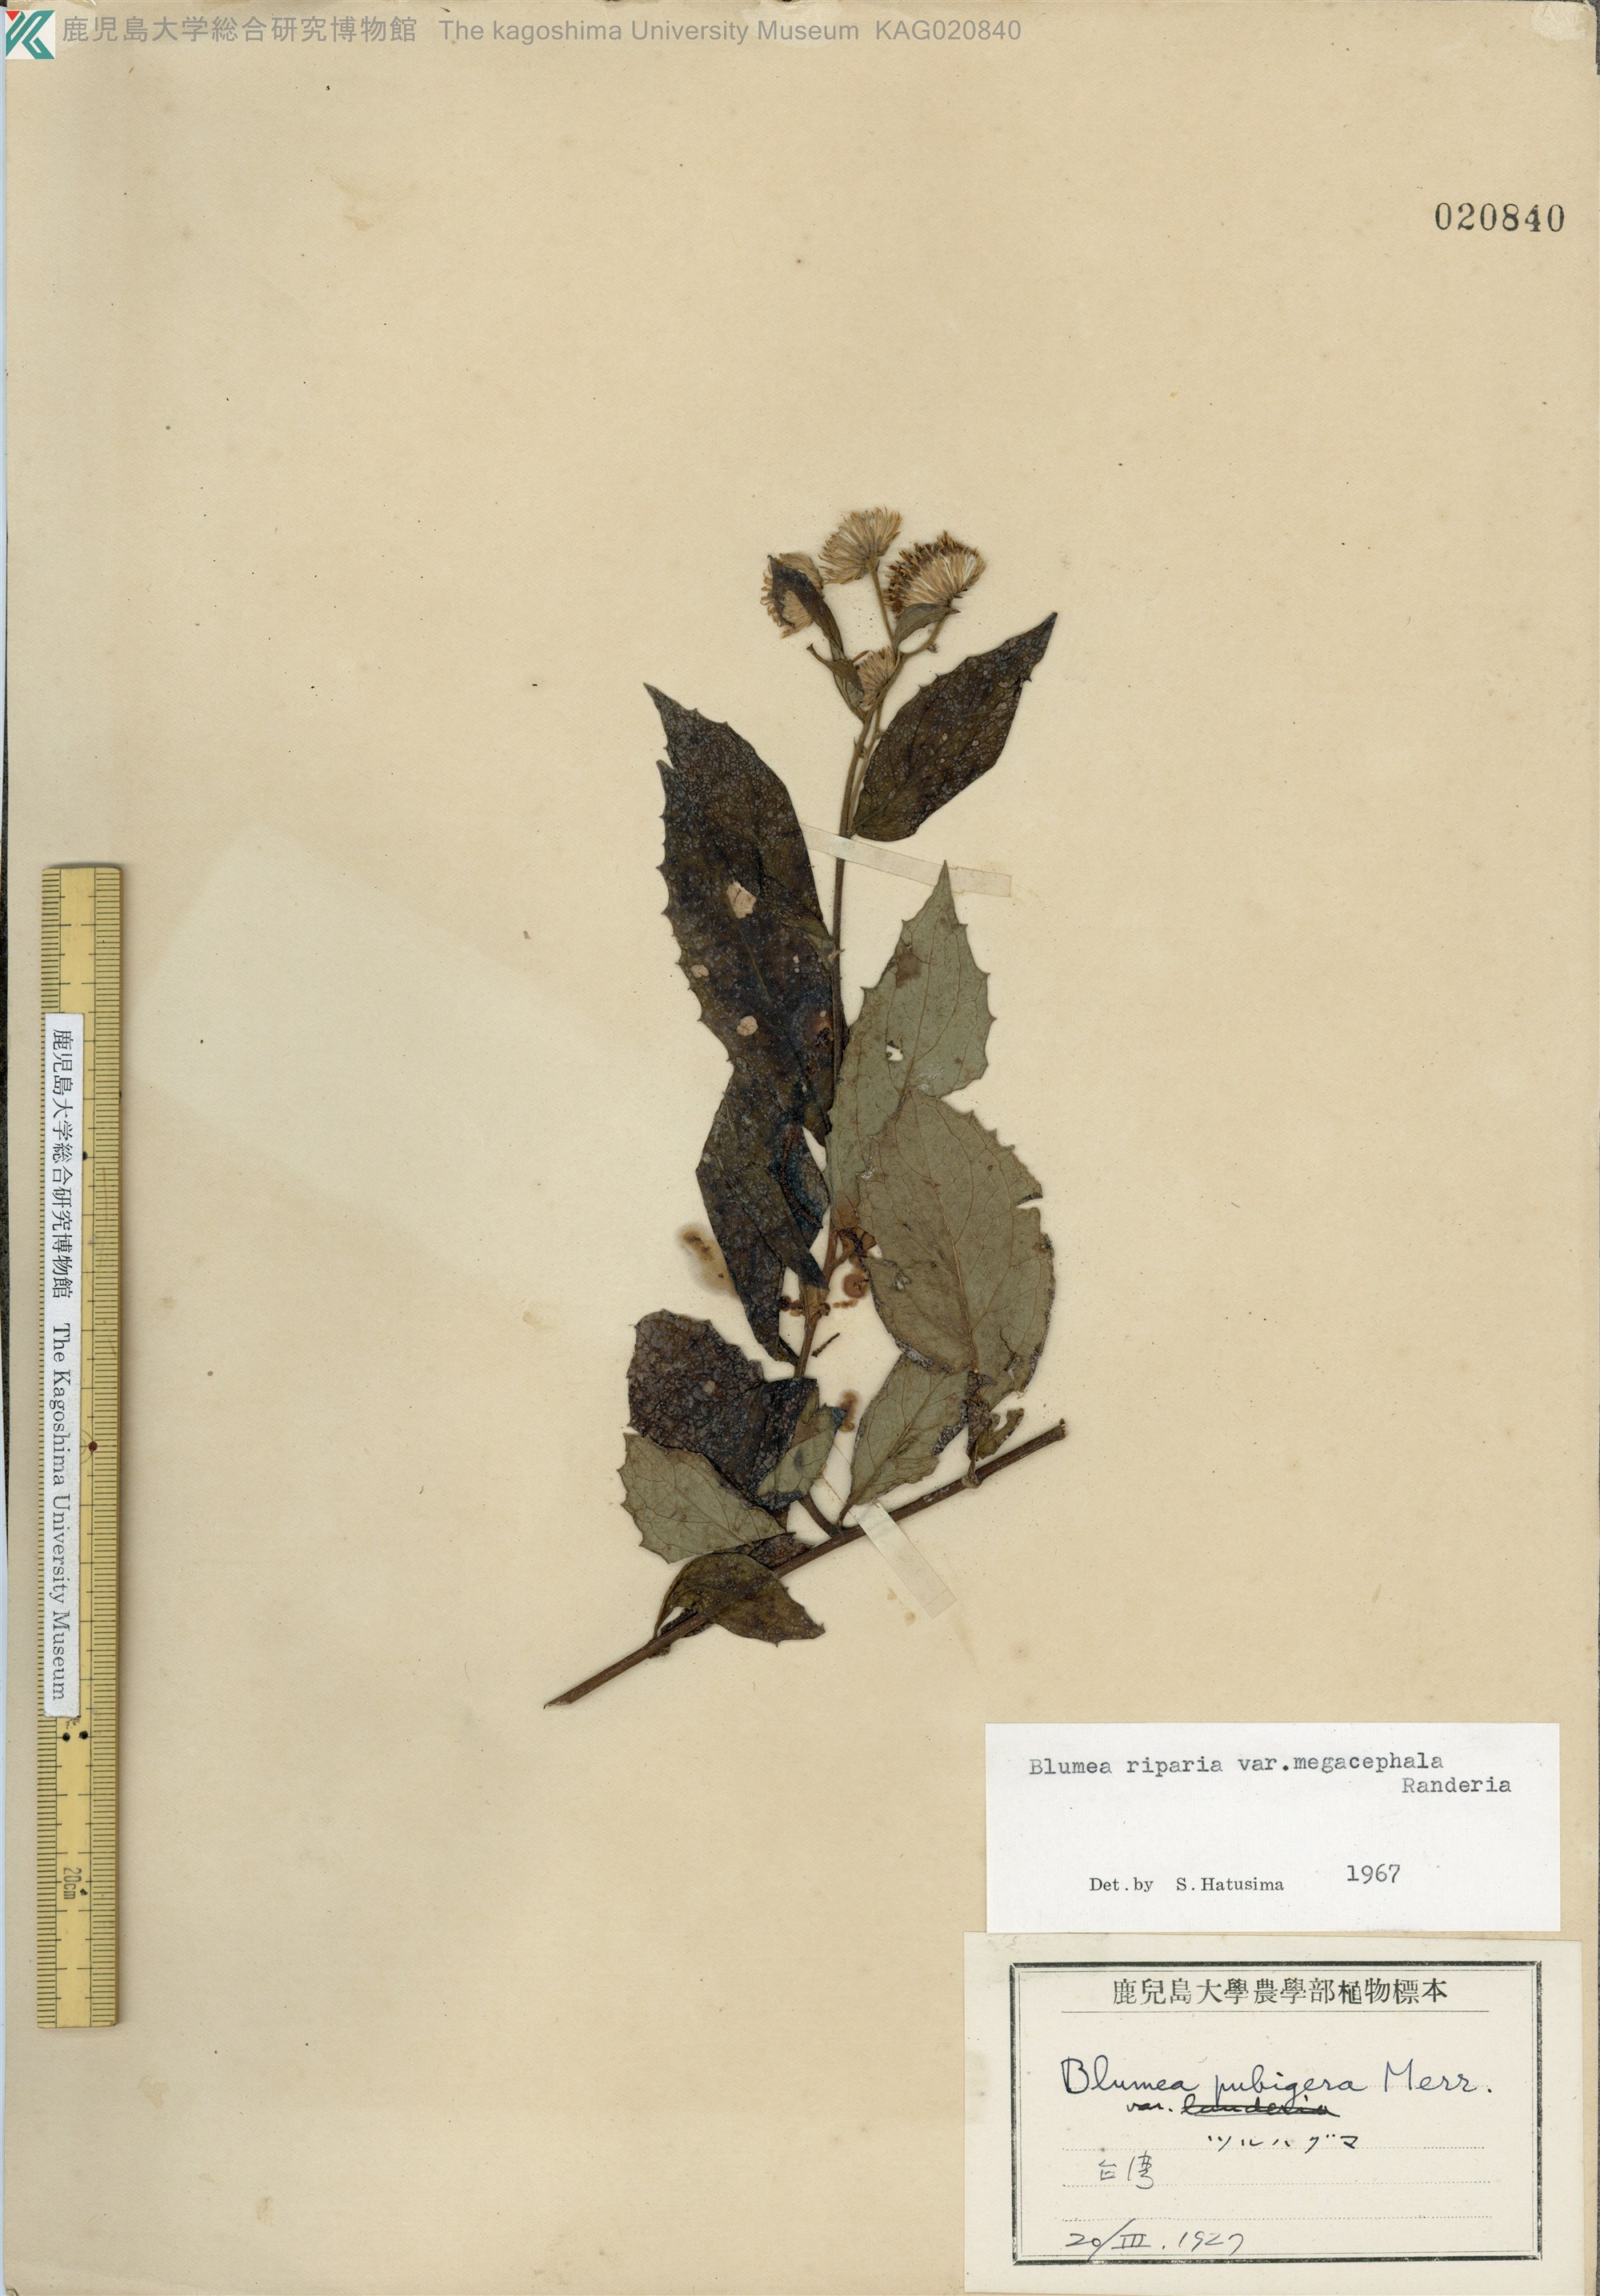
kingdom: Plantae
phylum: Tracheophyta
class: Magnoliopsida
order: Asterales
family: Asteraceae
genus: Blumea
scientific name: Blumea megacephala
